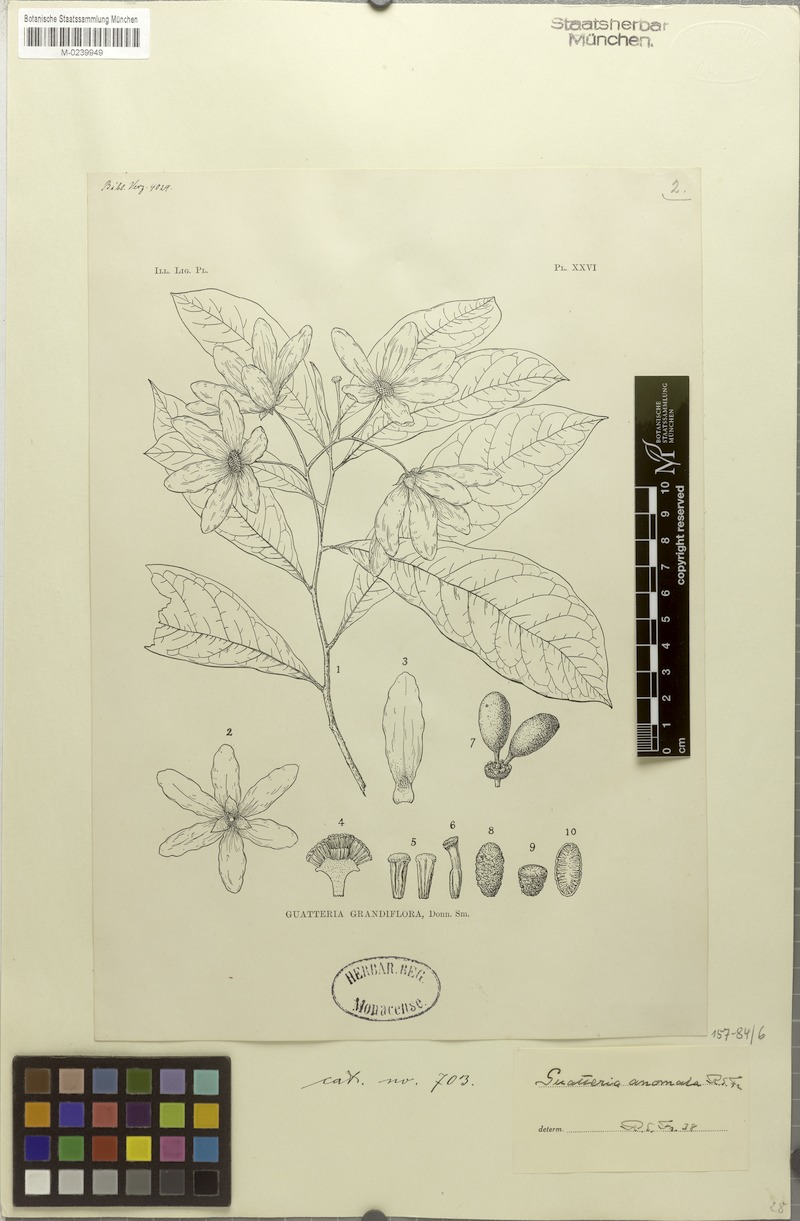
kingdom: Plantae
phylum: Tracheophyta
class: Magnoliopsida
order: Magnoliales
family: Annonaceae
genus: Guatteria
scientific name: Guatteria anomala
